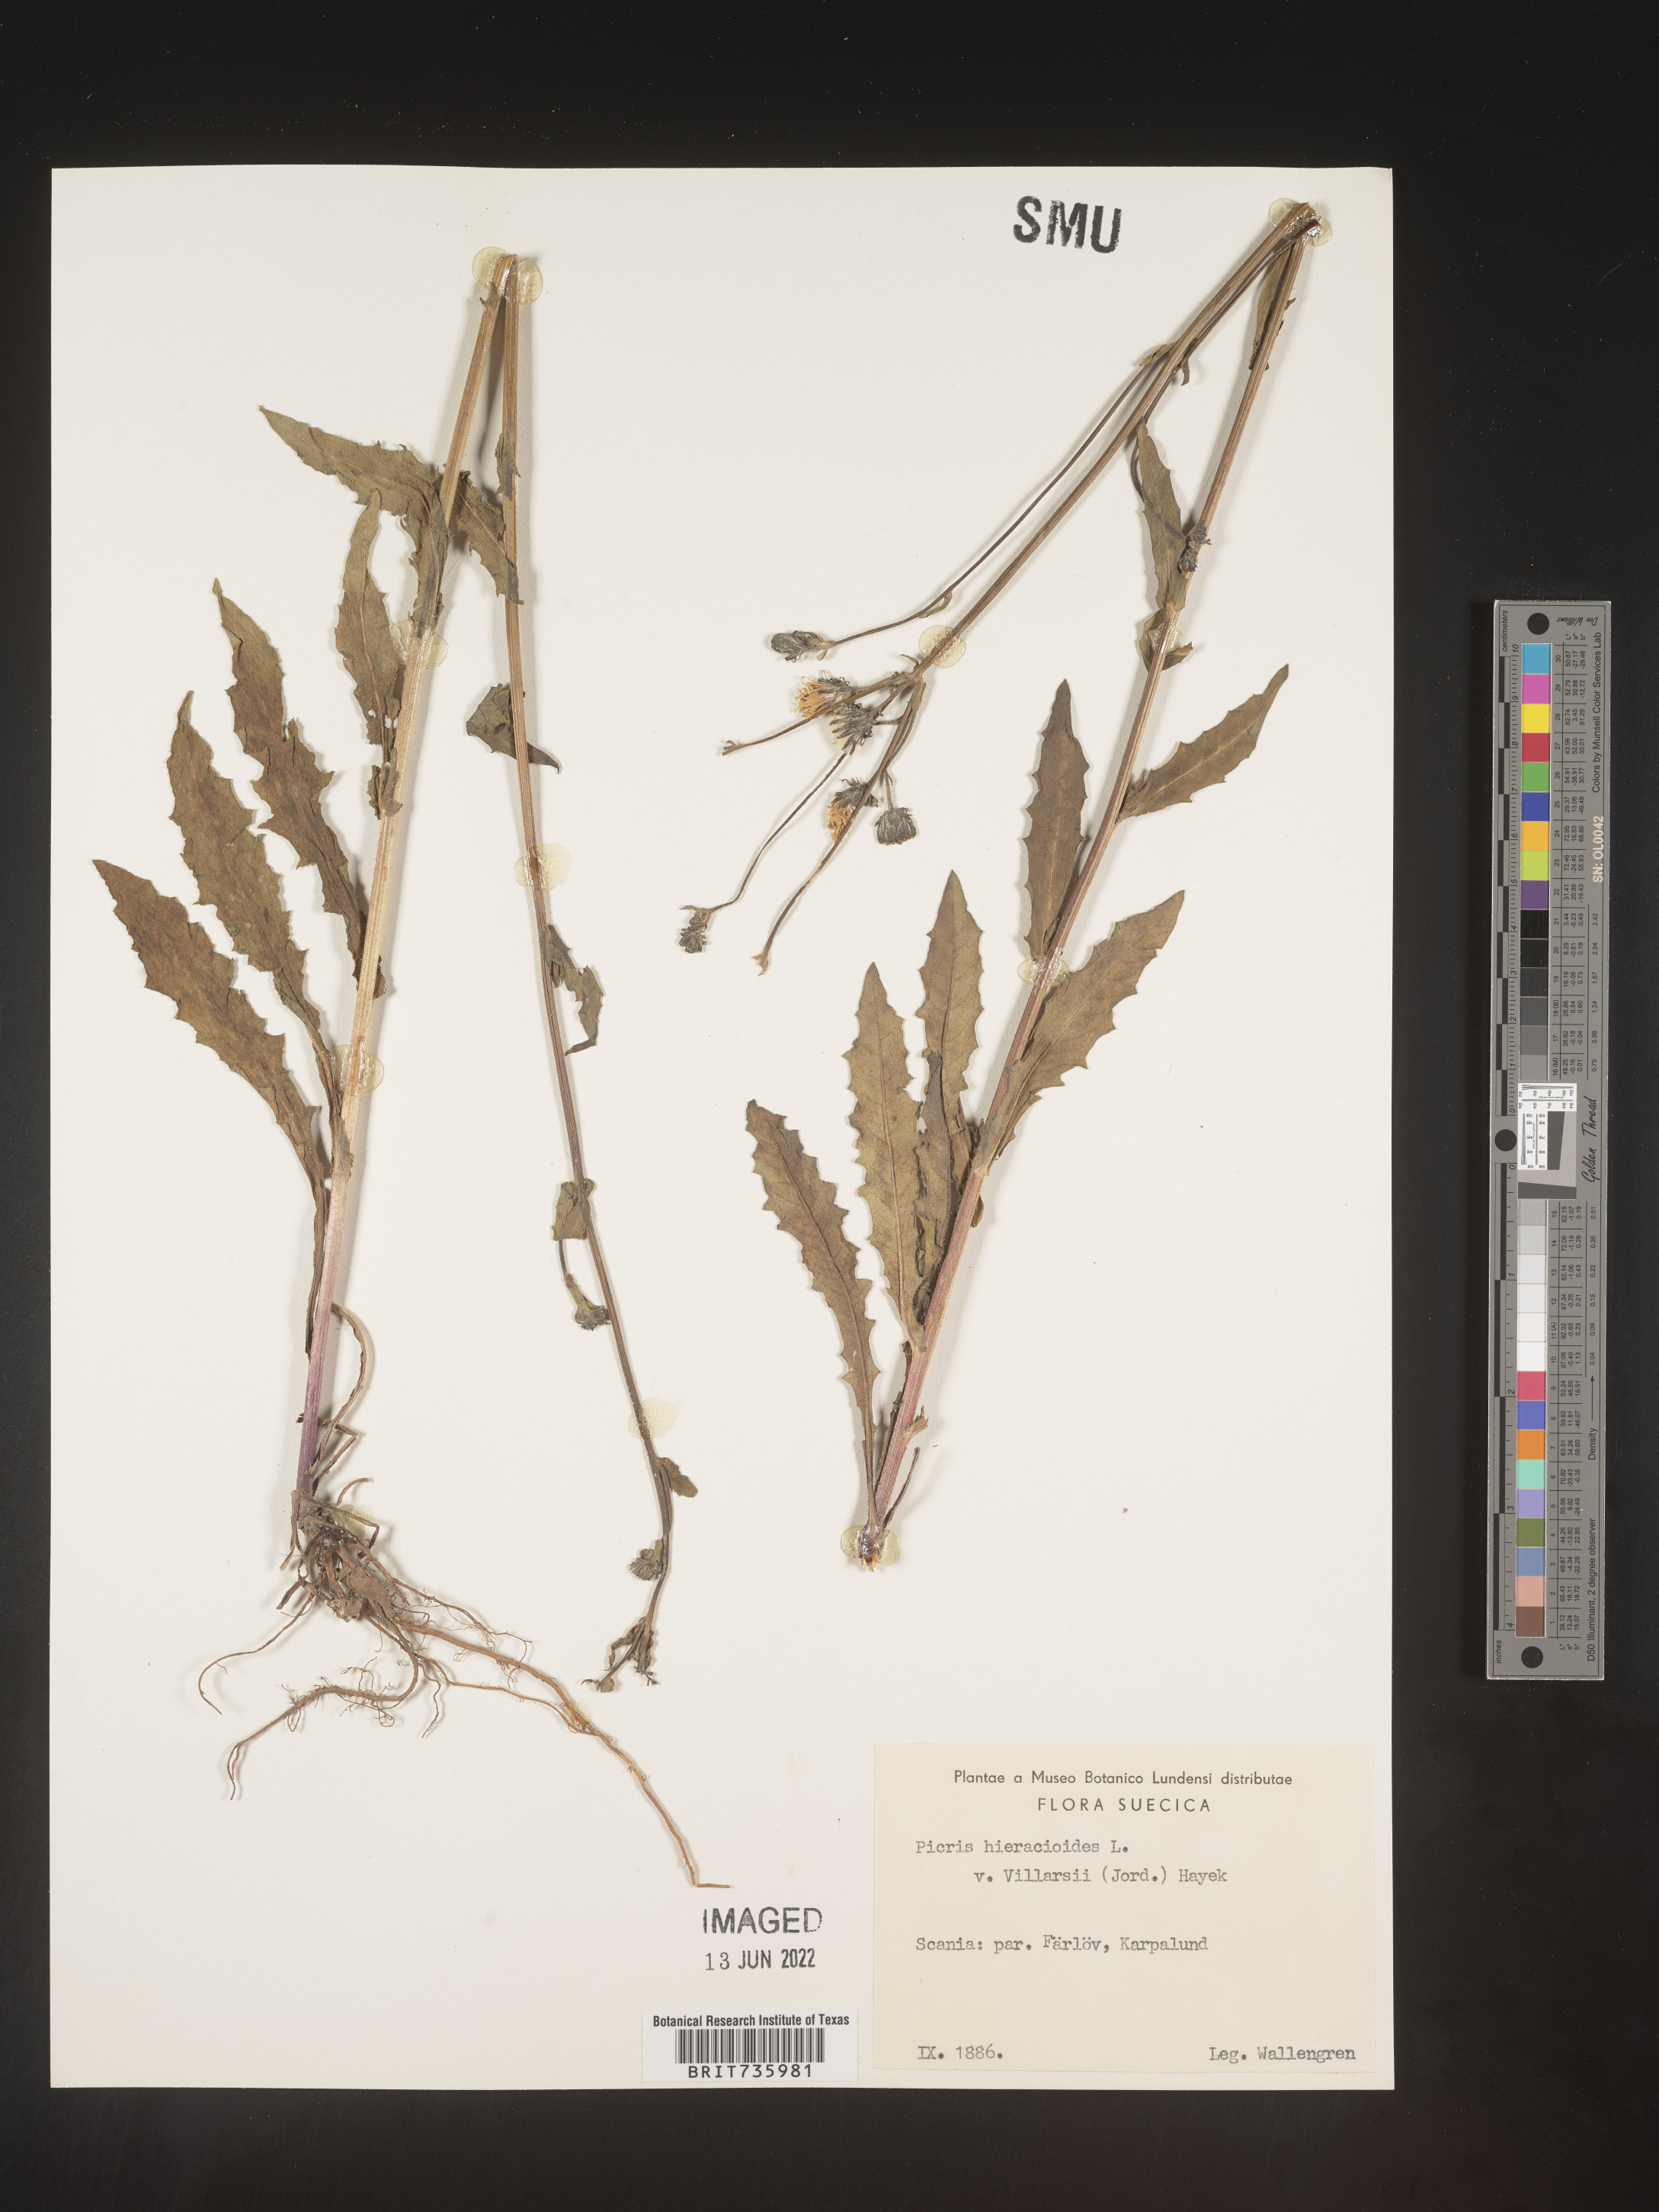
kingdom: Plantae
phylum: Tracheophyta
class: Magnoliopsida
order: Asterales
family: Asteraceae
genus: Picris
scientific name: Picris
